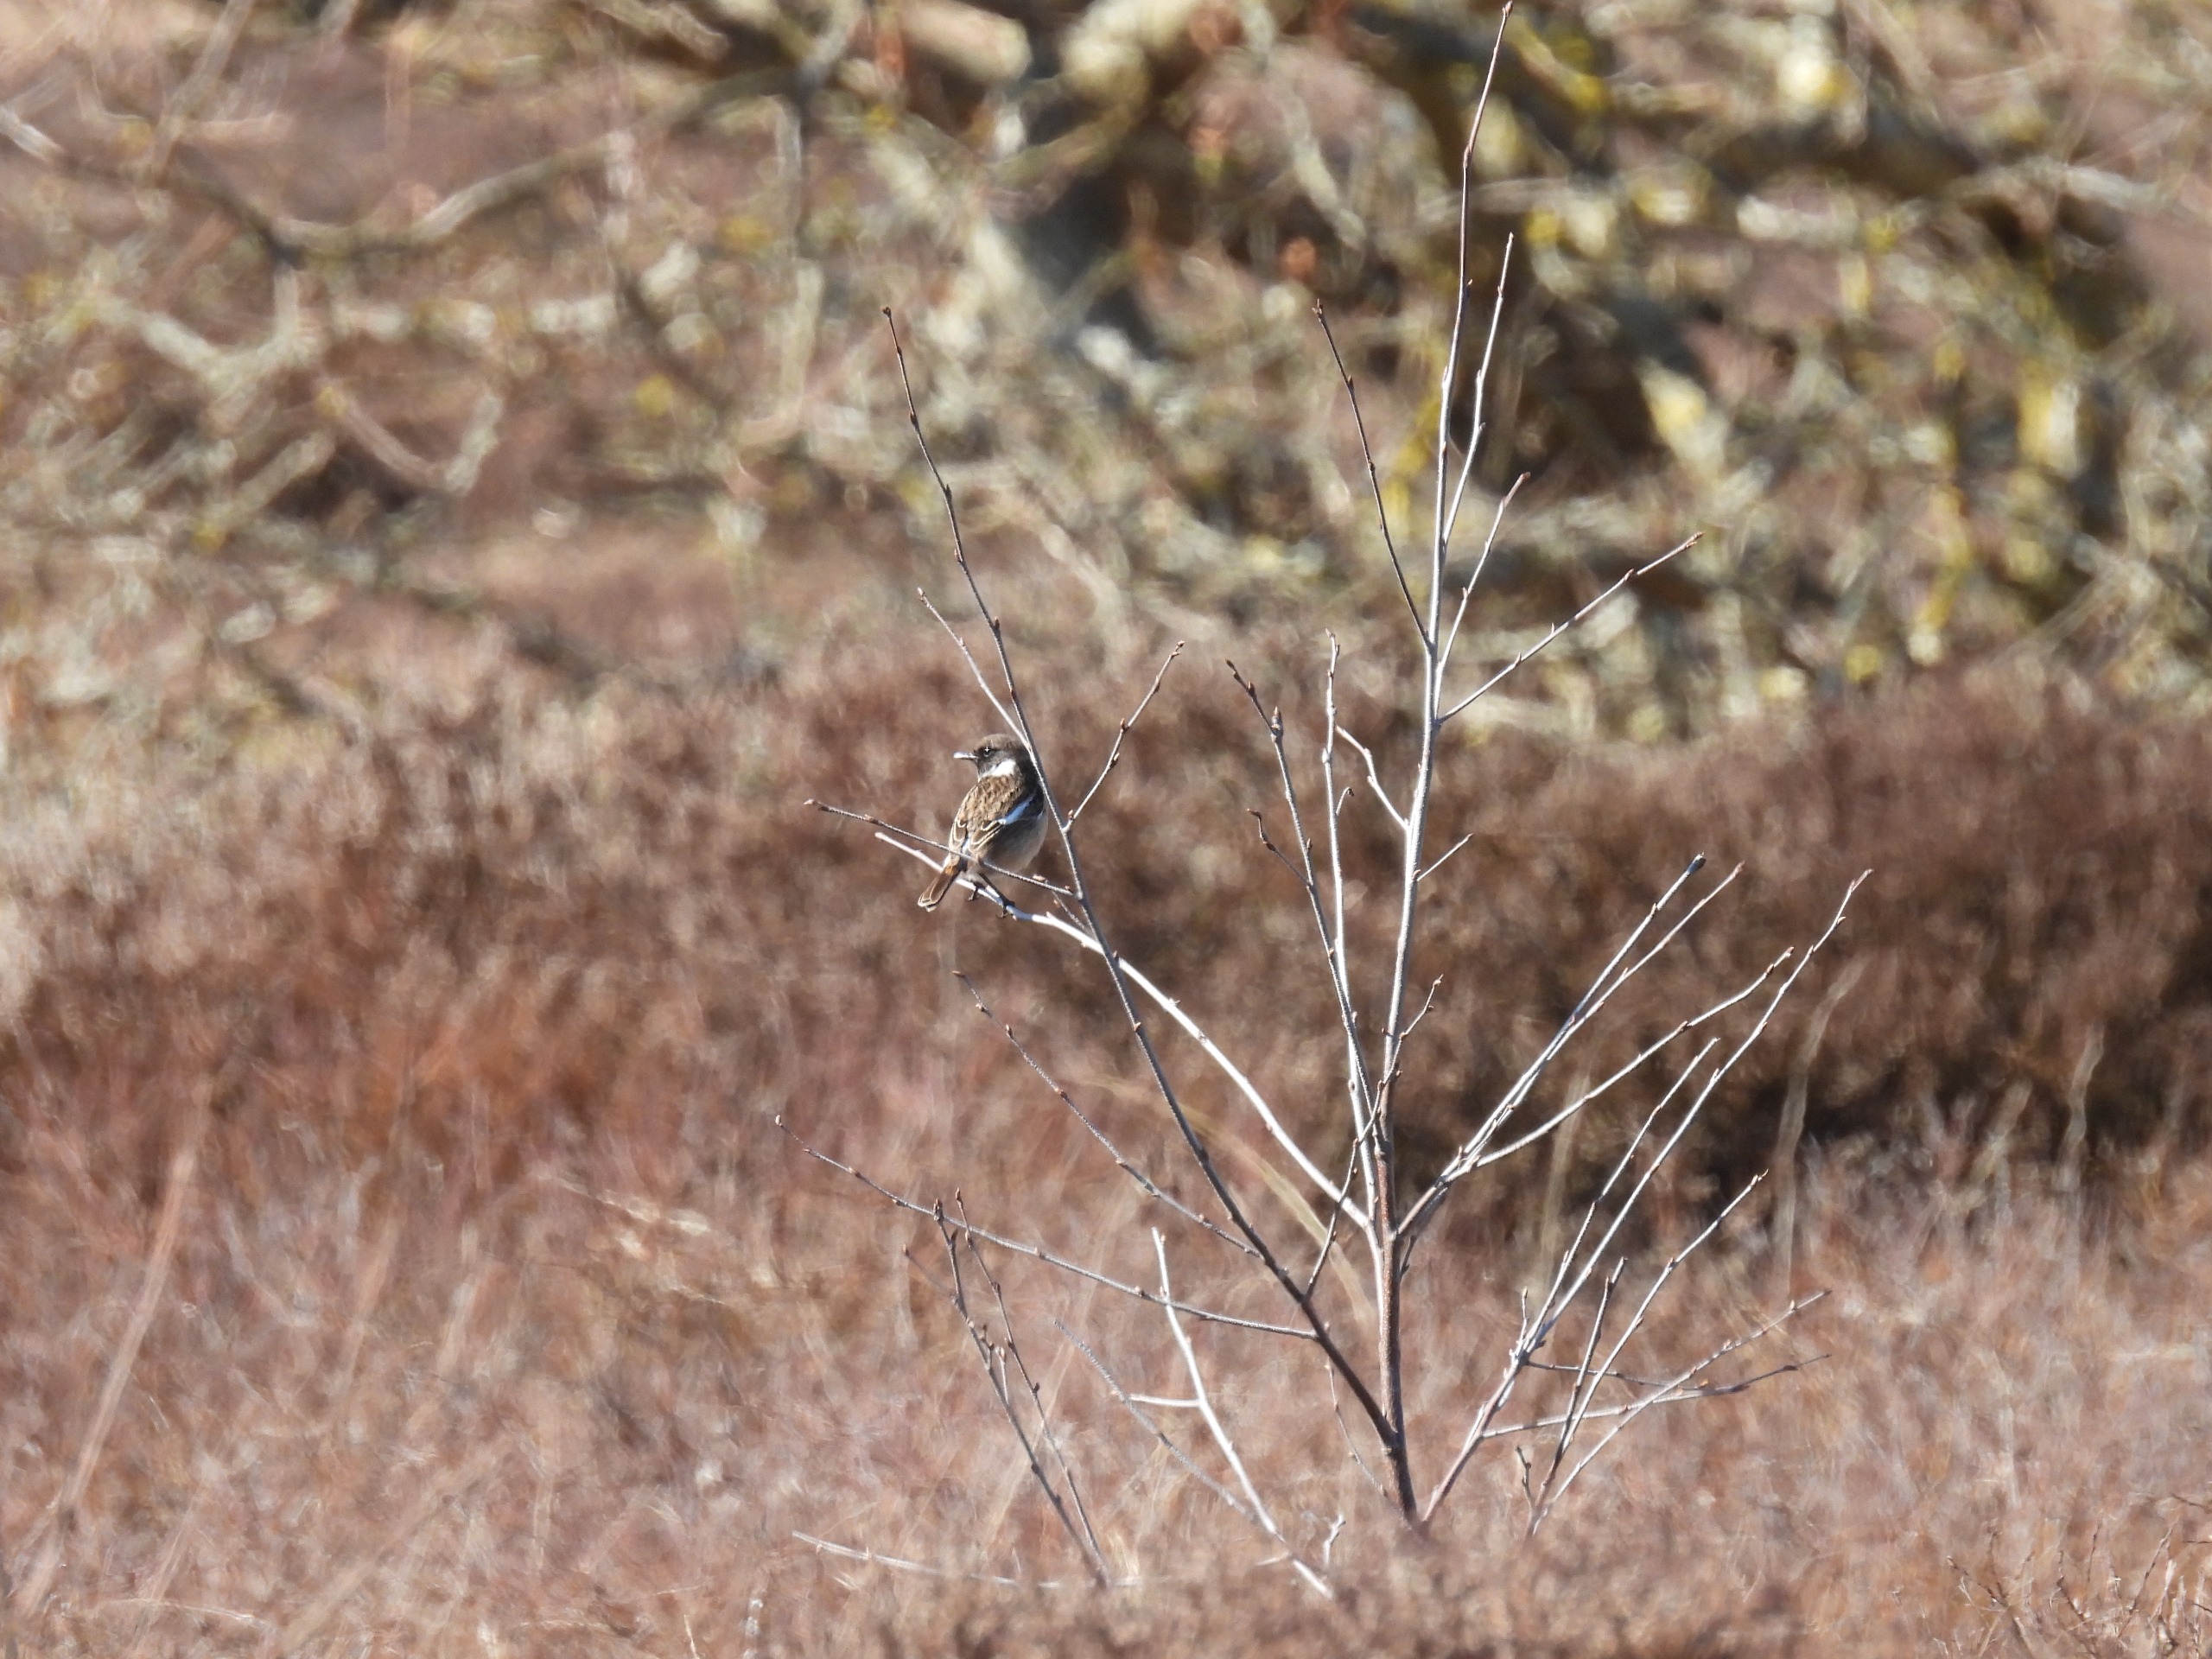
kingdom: Animalia
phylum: Chordata
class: Aves
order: Passeriformes
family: Muscicapidae
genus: Saxicola
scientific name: Saxicola rubicola
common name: Sortstrubet bynkefugl
